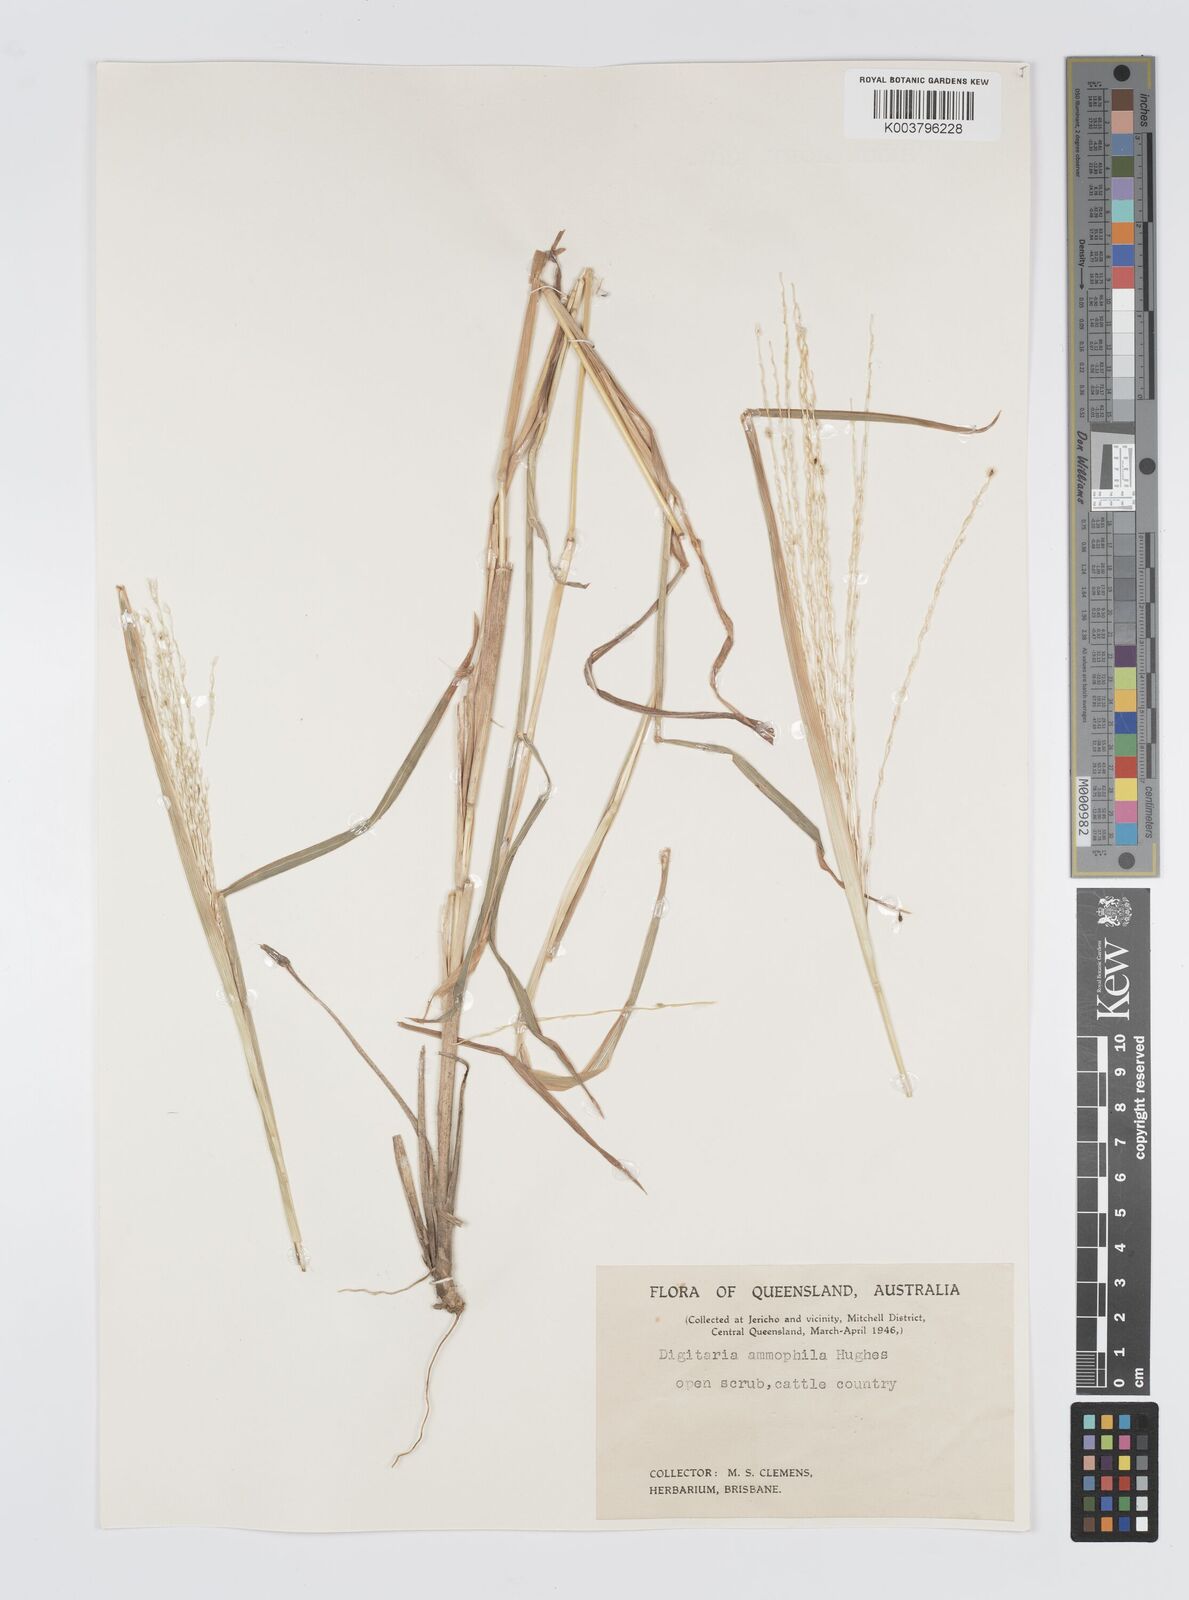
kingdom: Plantae
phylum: Tracheophyta
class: Liliopsida
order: Poales
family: Poaceae
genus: Digitaria
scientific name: Digitaria ammophila
